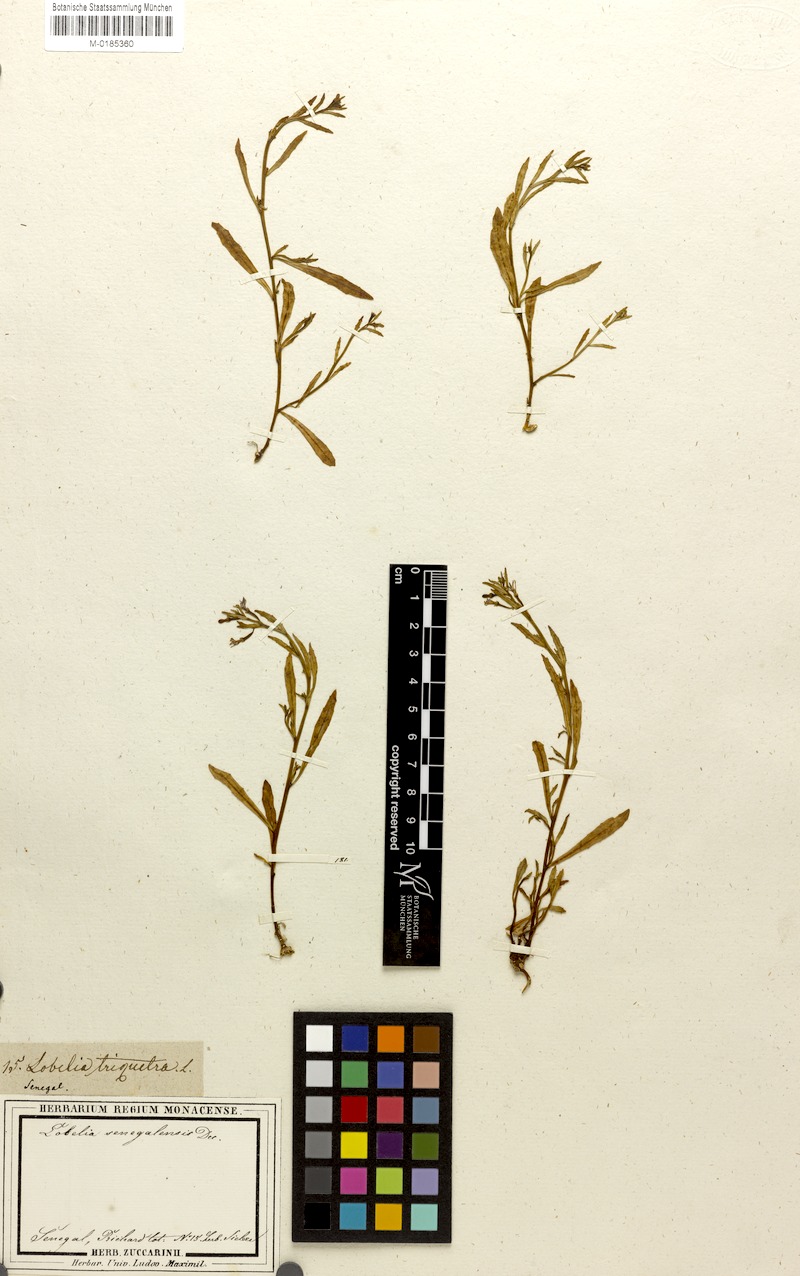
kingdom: Plantae
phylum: Tracheophyta
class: Magnoliopsida
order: Asterales
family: Campanulaceae
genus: Lobelia
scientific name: Lobelia erinus
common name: Edging lobelia
